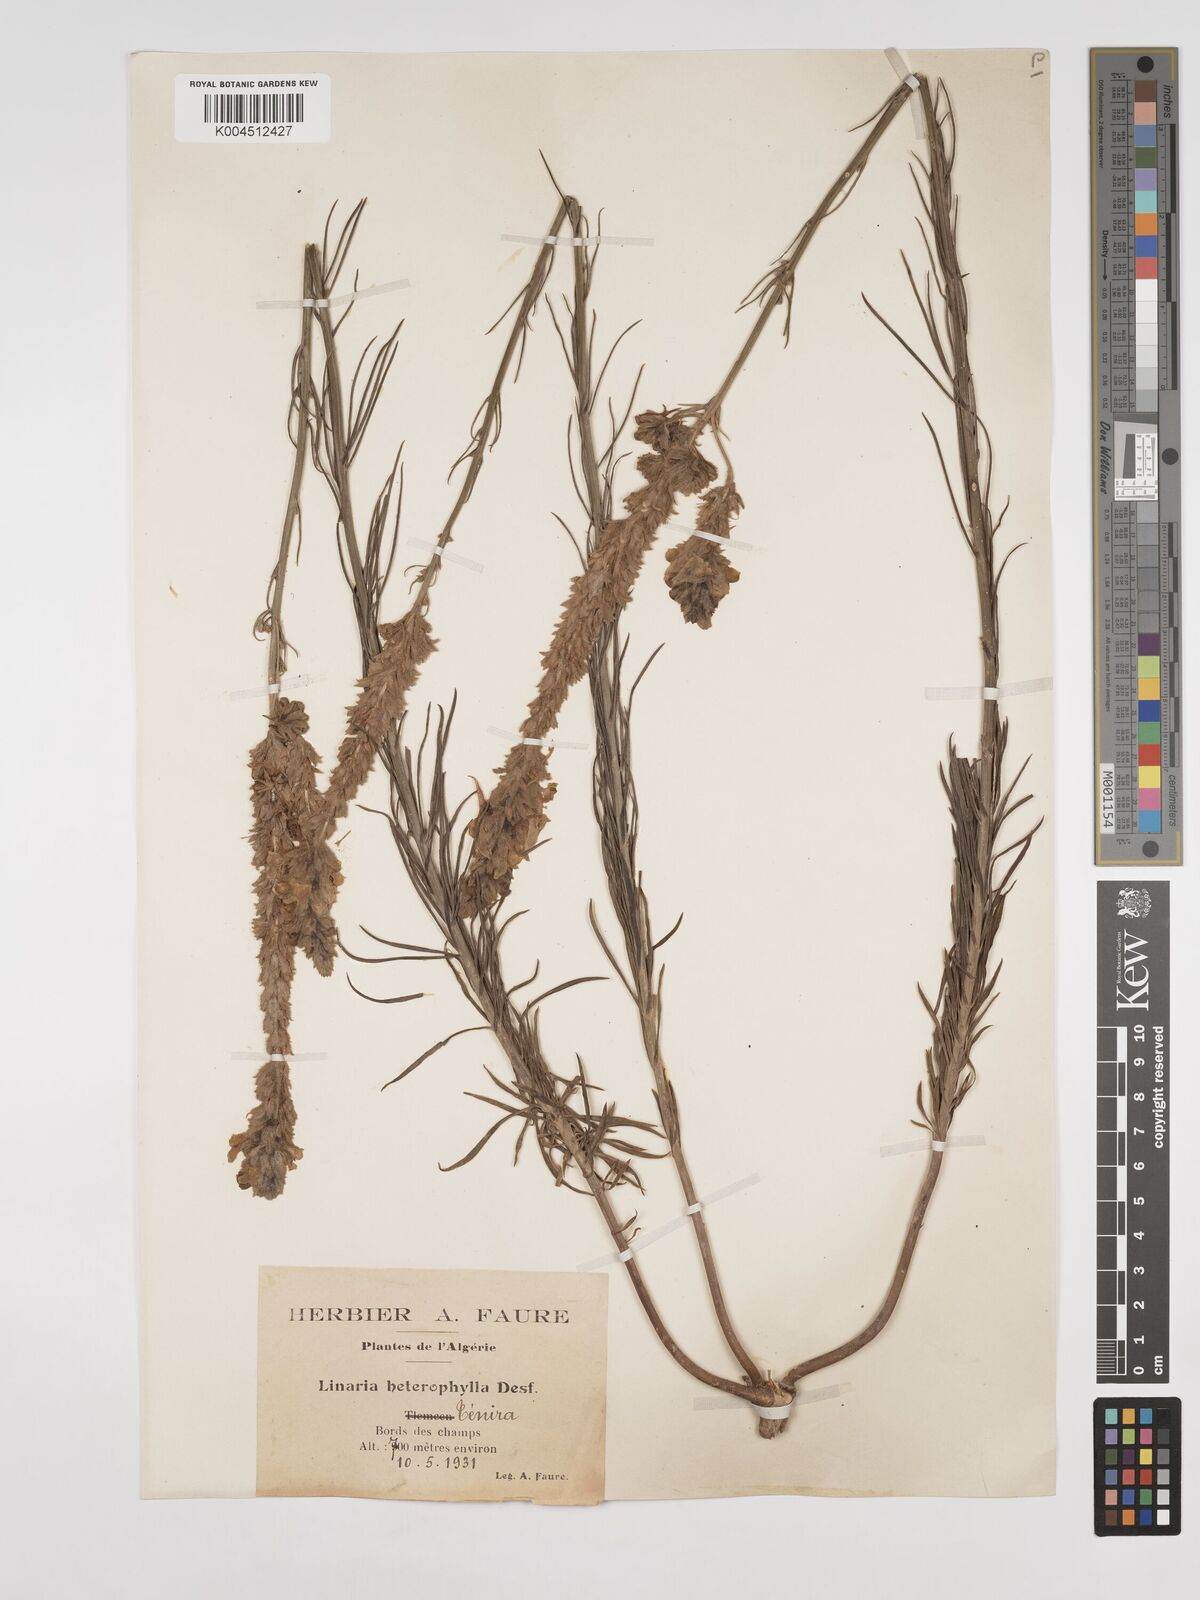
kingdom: Plantae
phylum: Tracheophyta
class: Magnoliopsida
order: Lamiales
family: Plantaginaceae
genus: Linaria
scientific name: Linaria multicaulis
